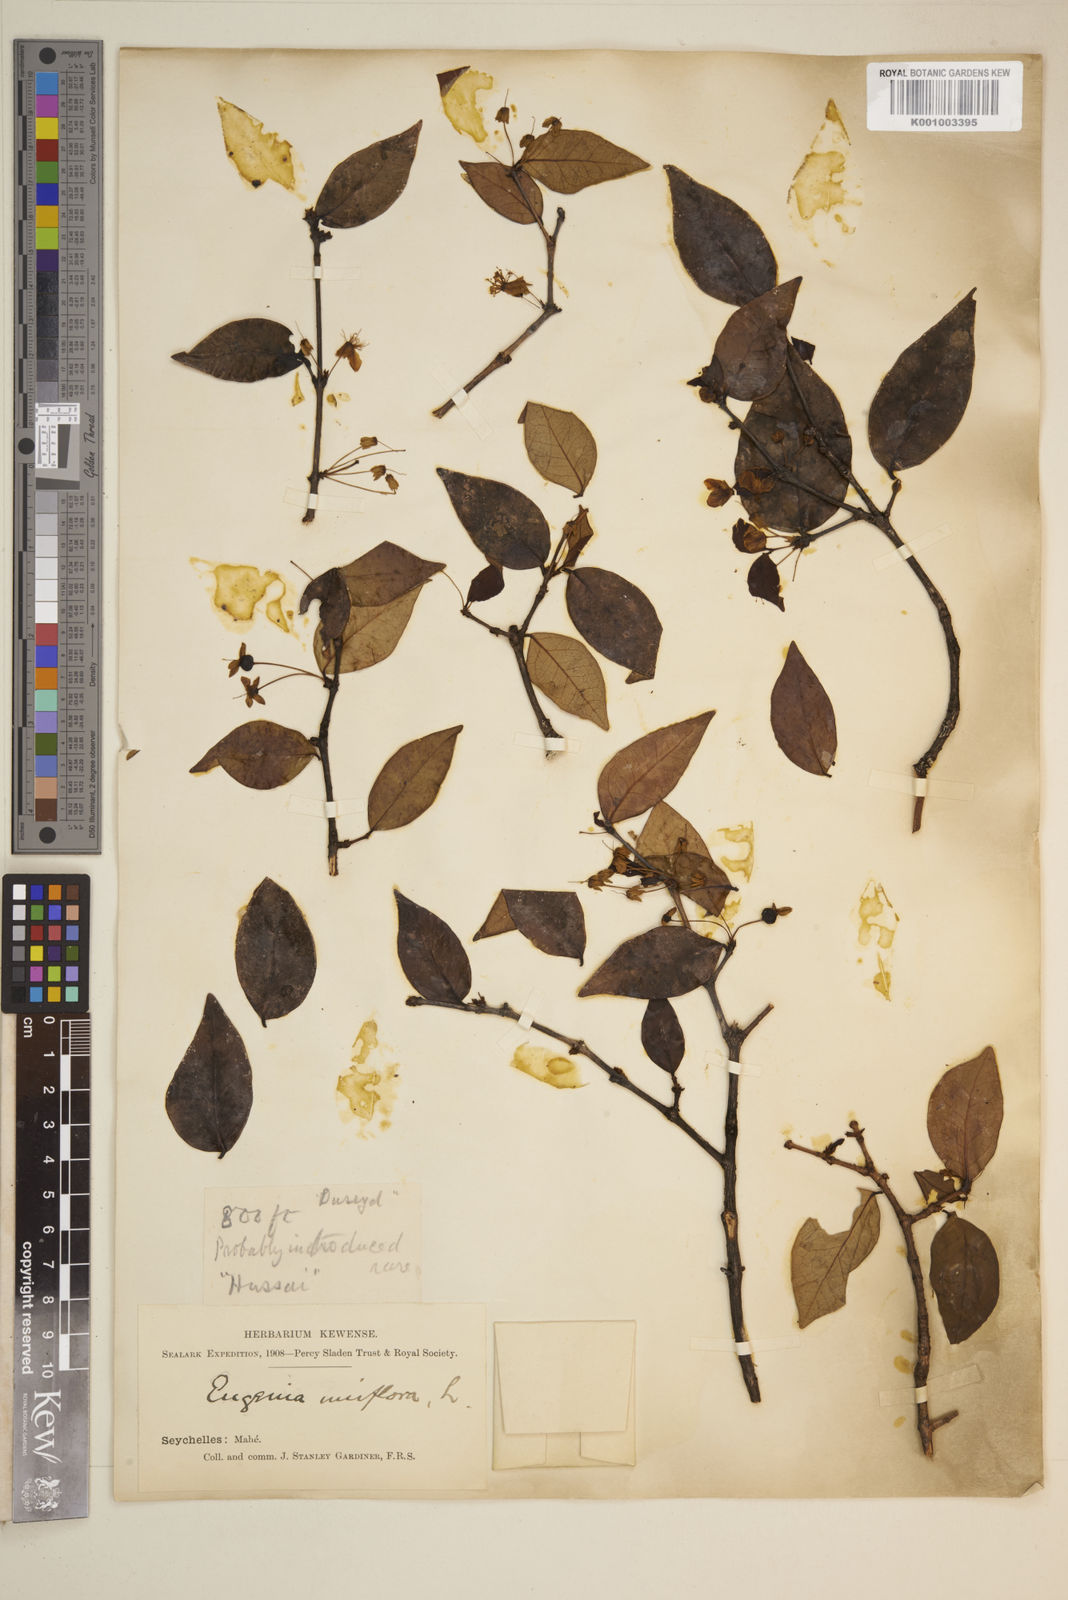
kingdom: Plantae
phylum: Tracheophyta
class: Magnoliopsida
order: Myrtales
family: Myrtaceae
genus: Eugenia
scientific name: Eugenia uniflora
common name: Surinam cherry
